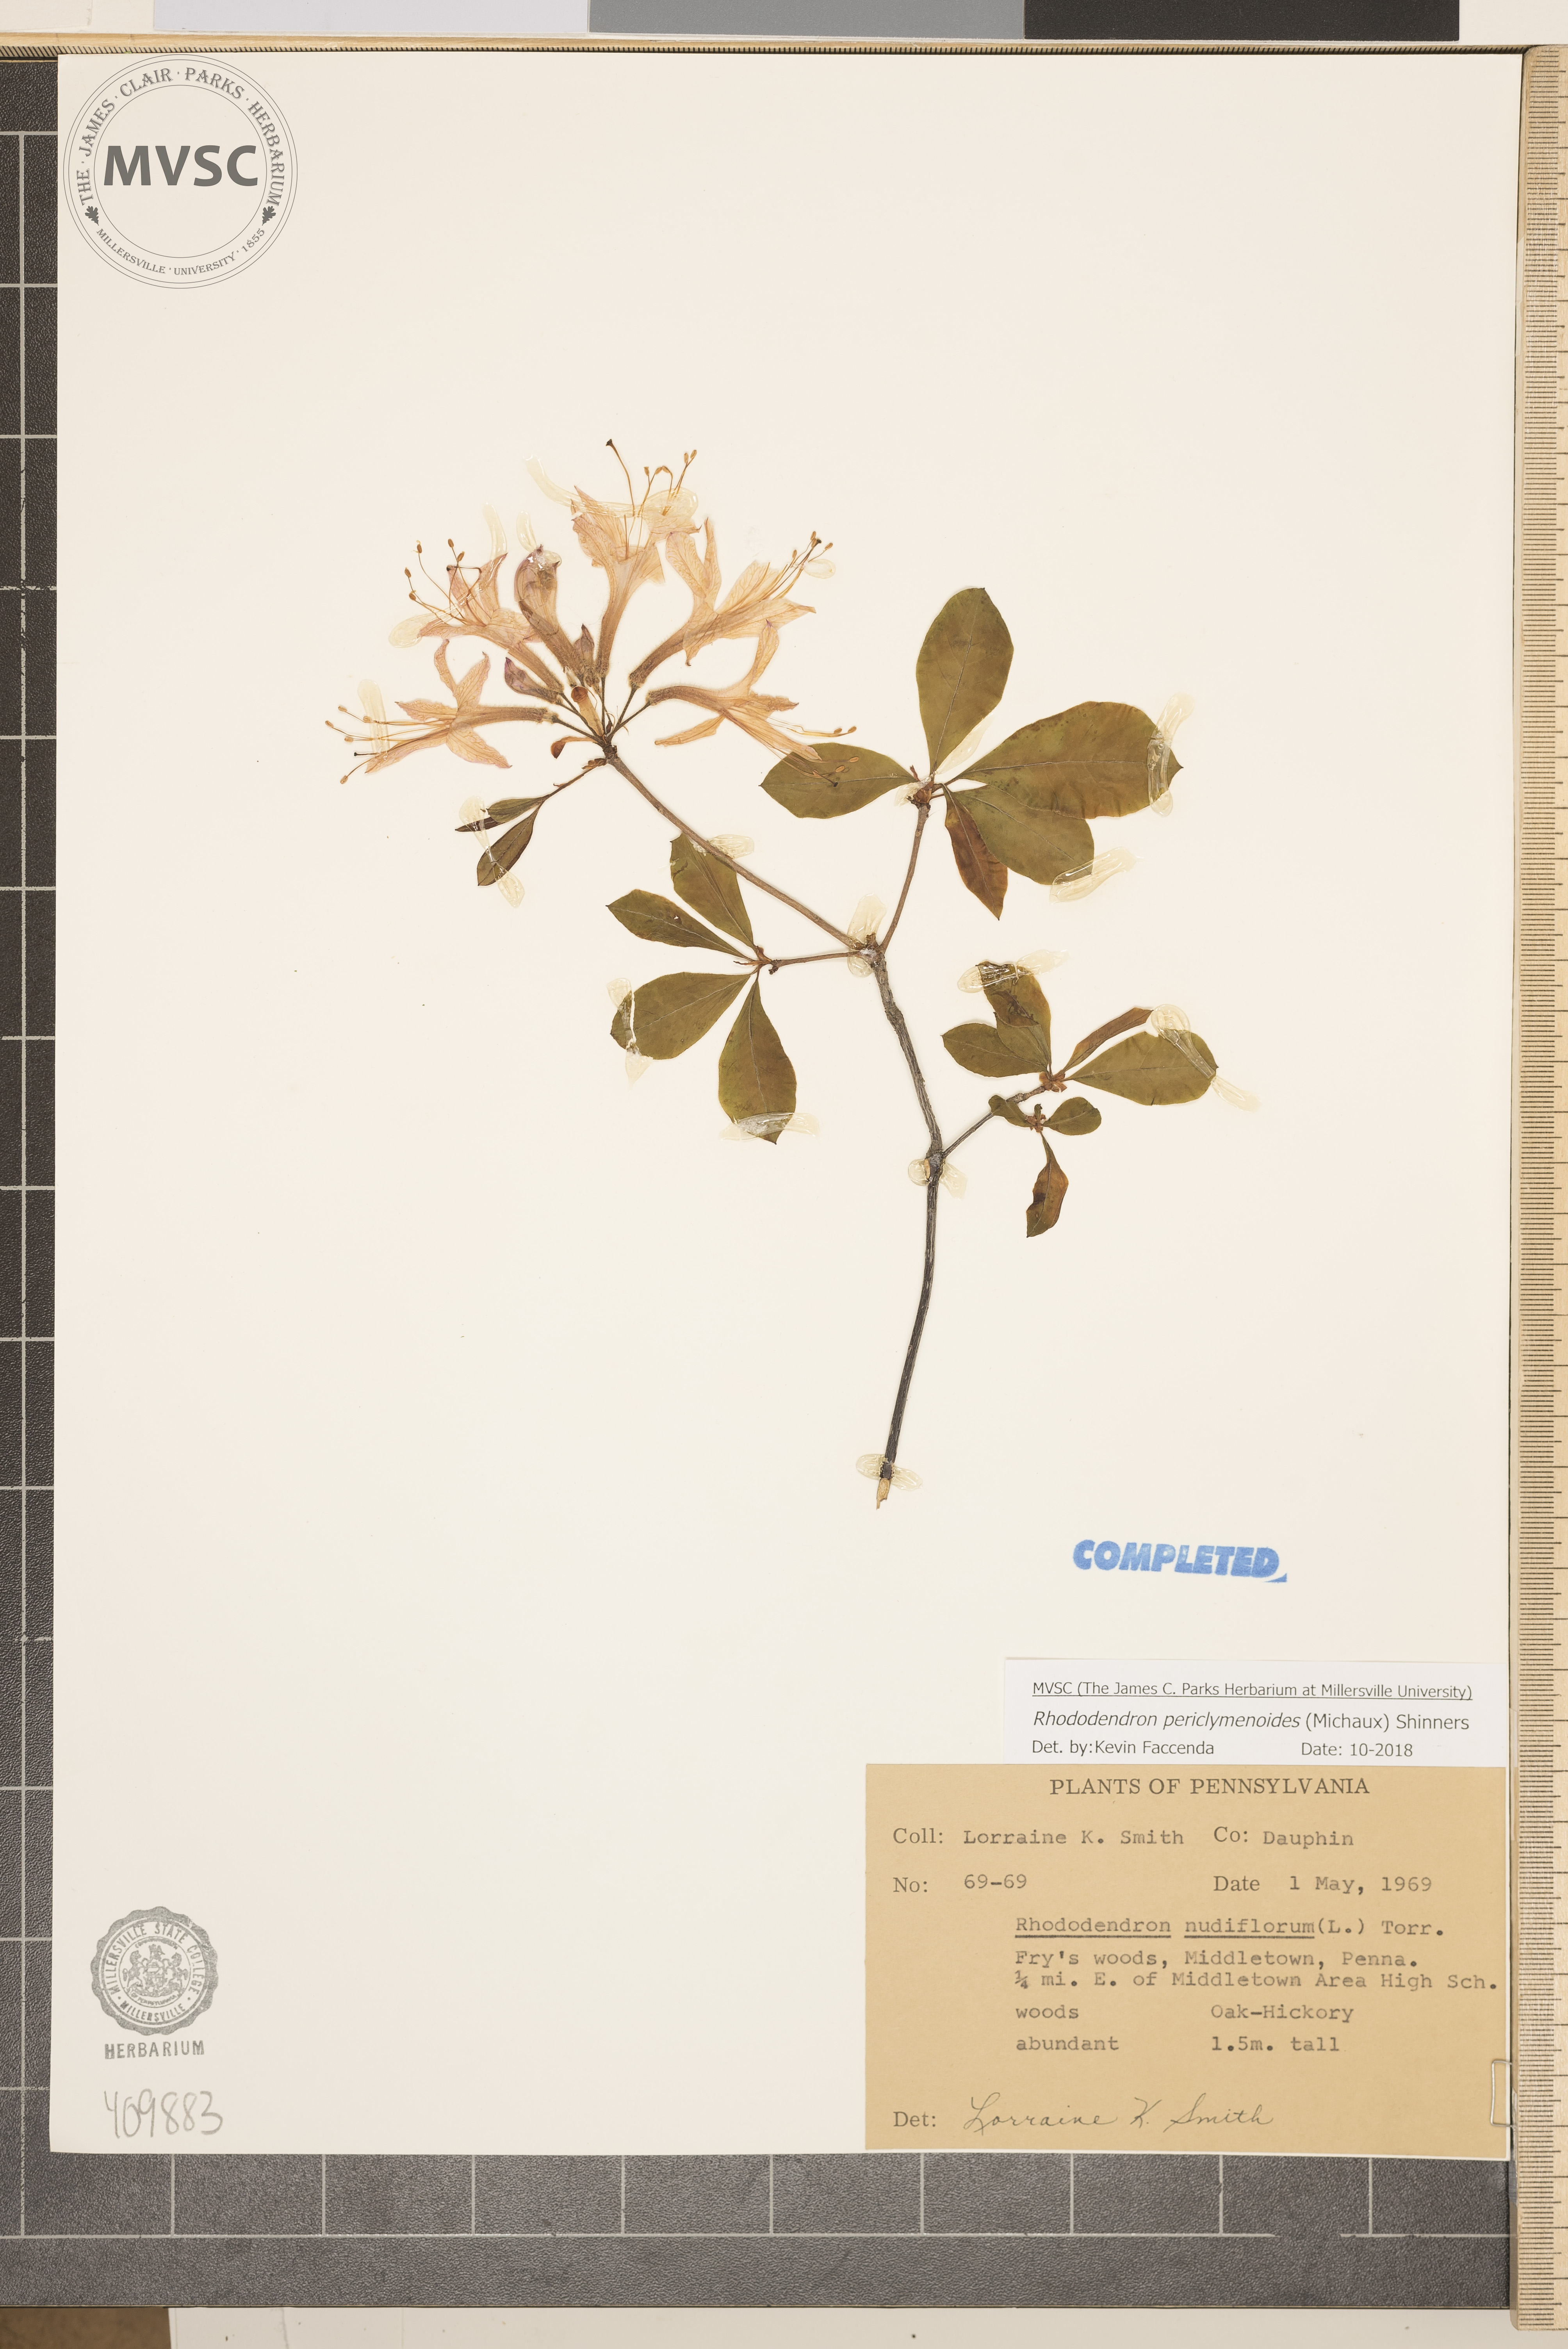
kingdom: Plantae
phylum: Tracheophyta
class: Magnoliopsida
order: Ericales
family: Ericaceae
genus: Rhododendron
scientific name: Rhododendron periclymenoides
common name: Election-pink
